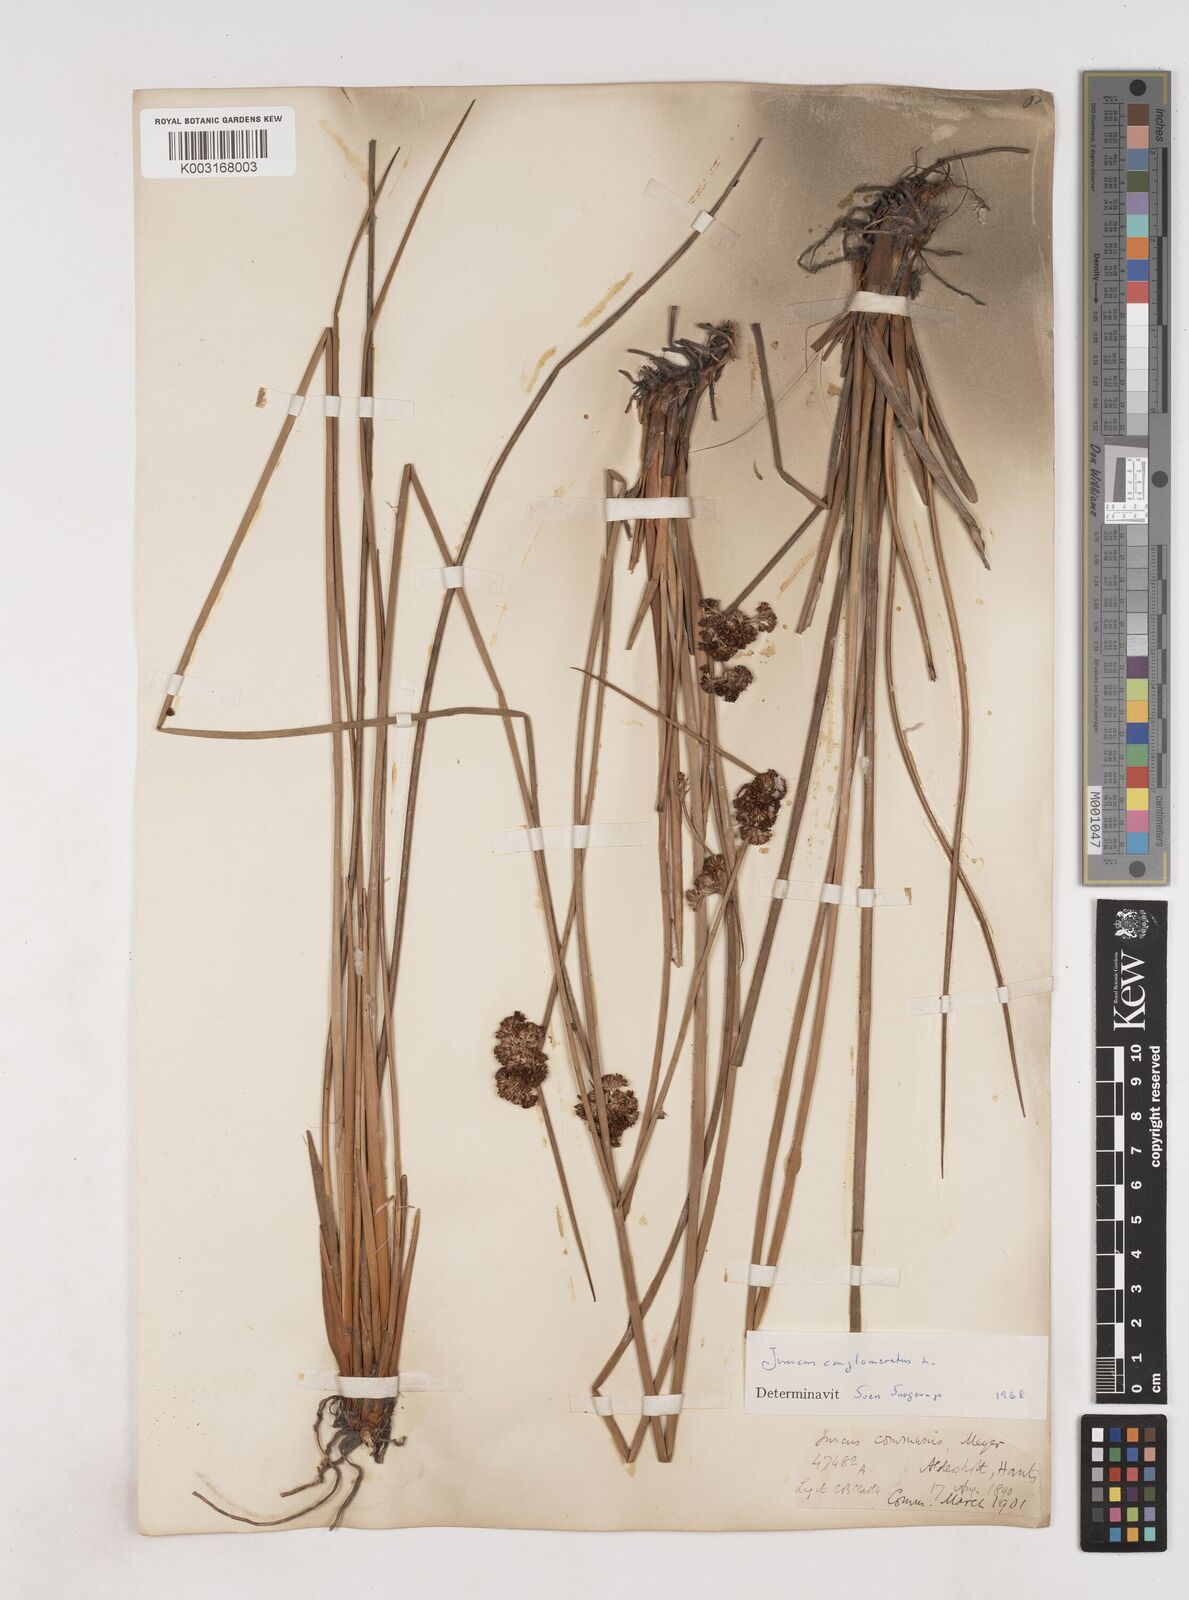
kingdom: Plantae
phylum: Tracheophyta
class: Liliopsida
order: Poales
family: Juncaceae
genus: Juncus
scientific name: Juncus conglomeratus
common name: Compact rush
